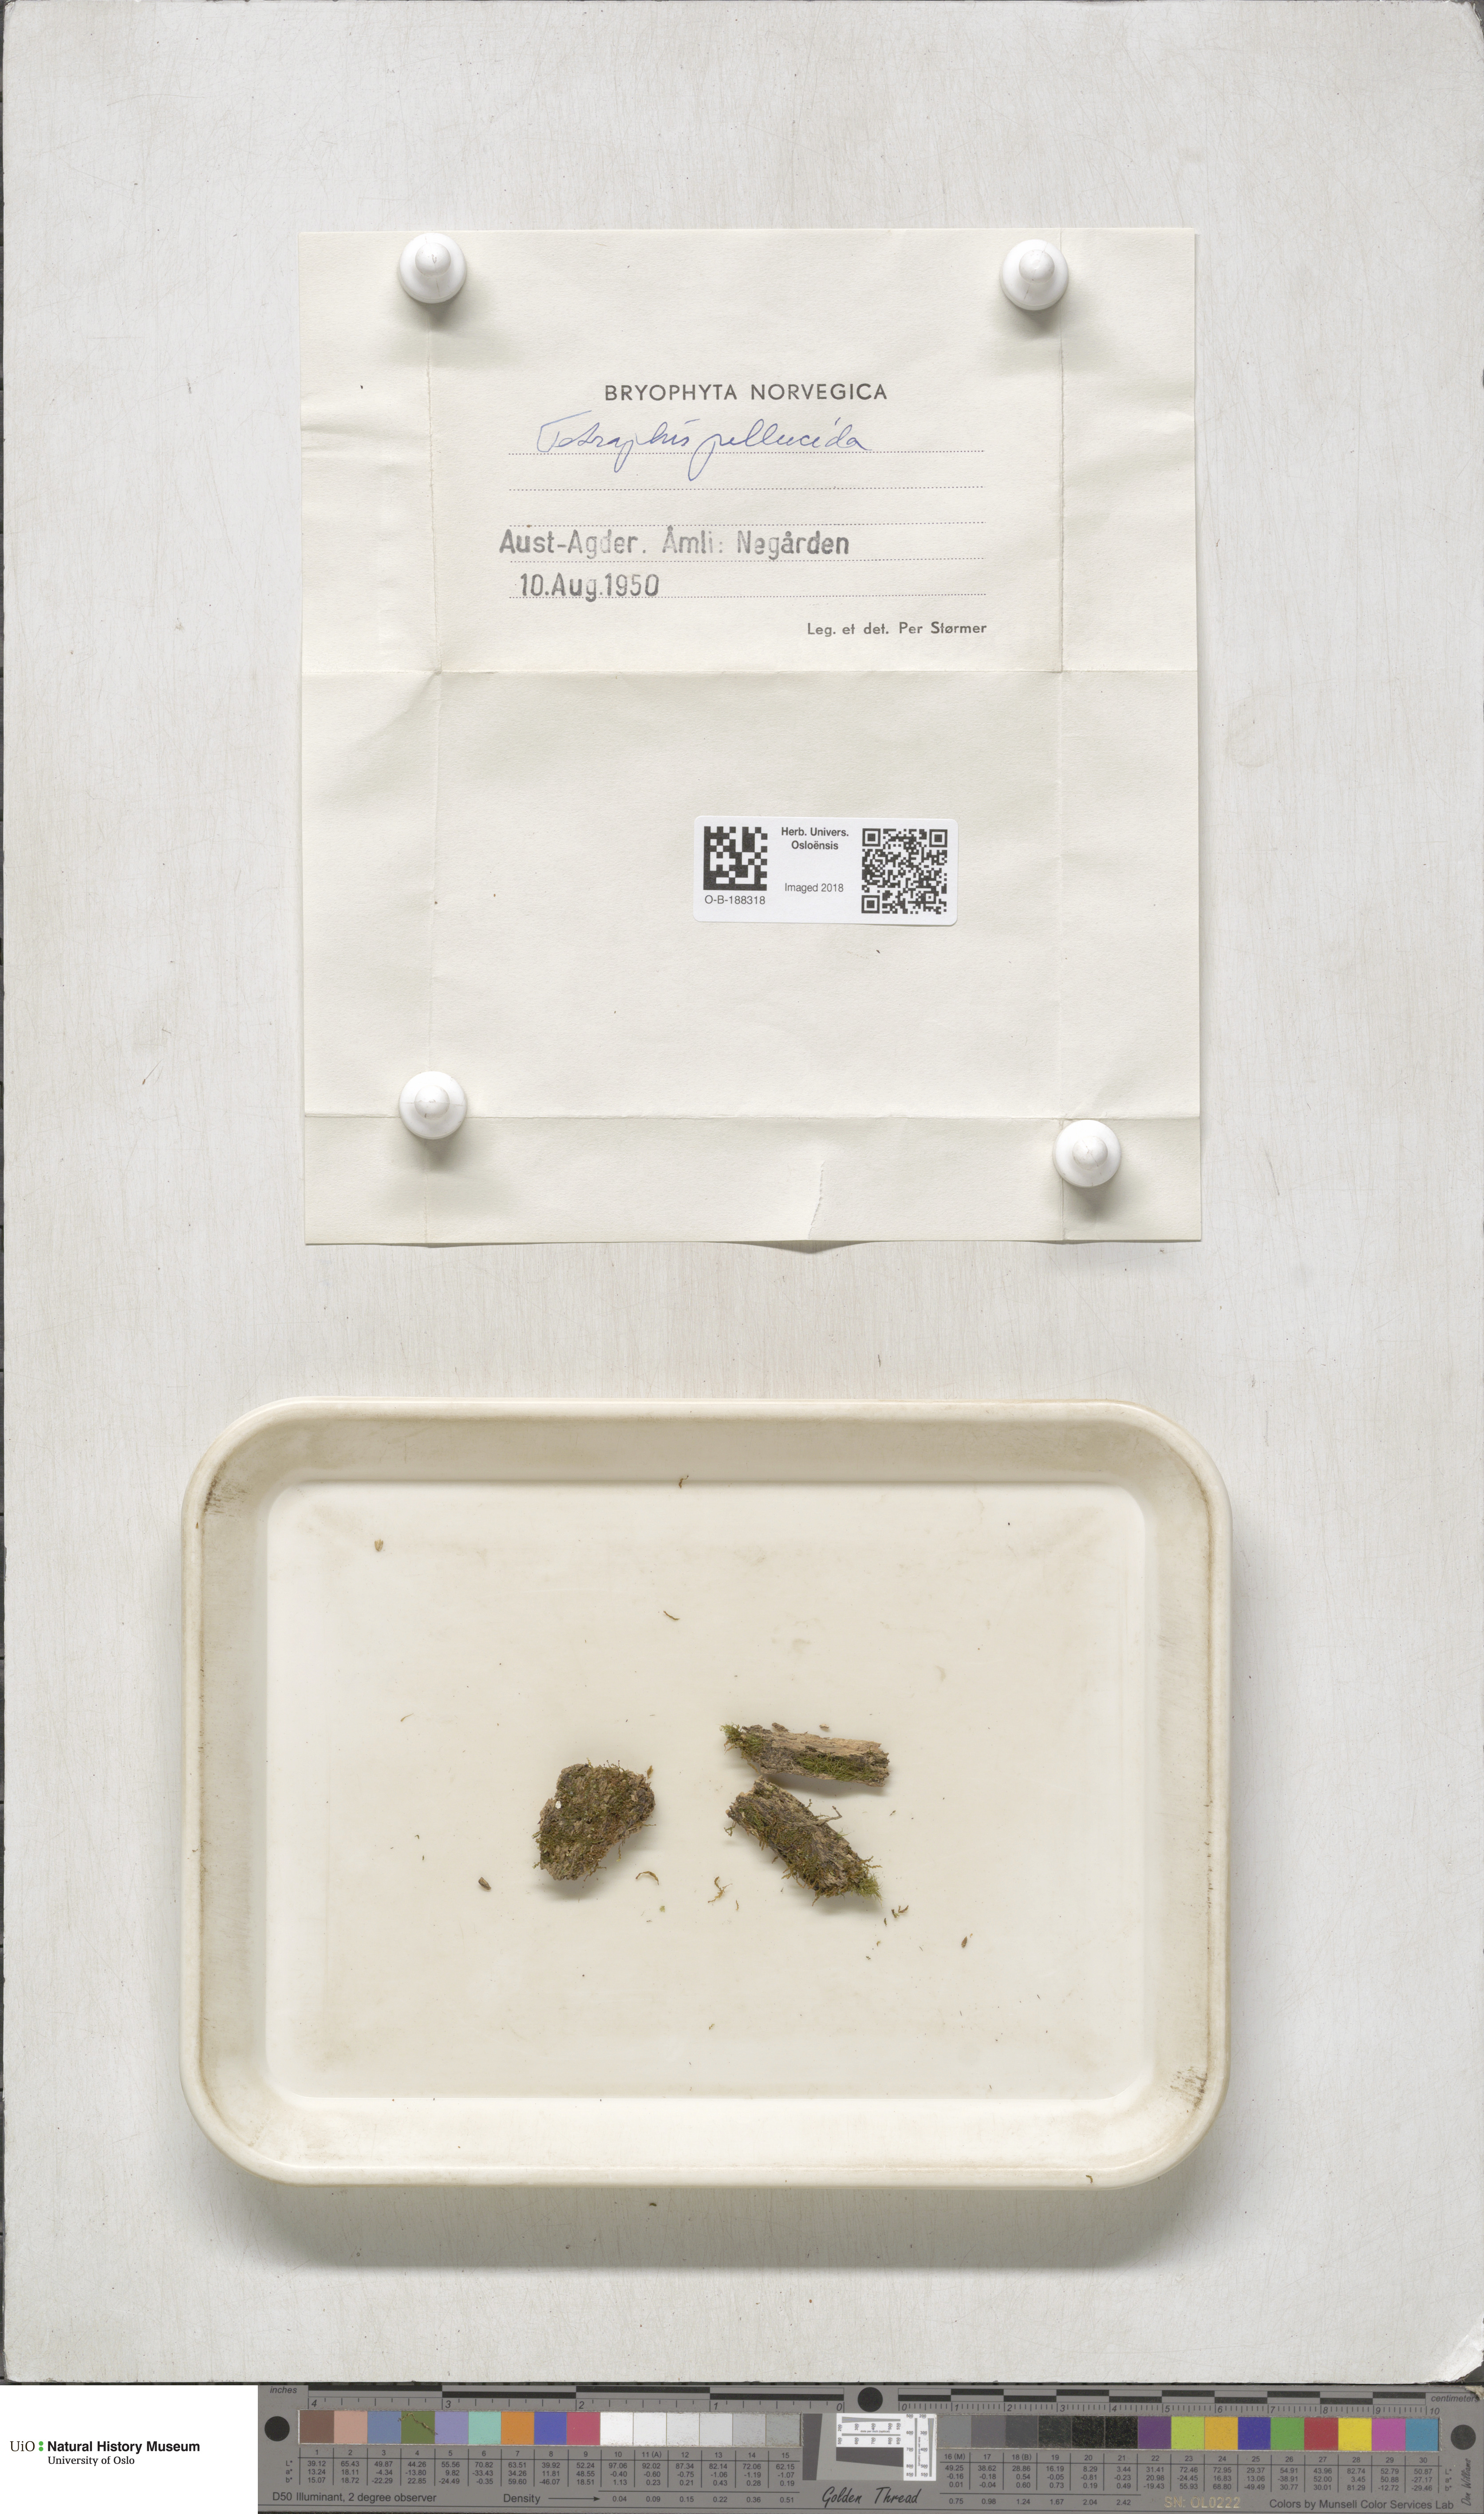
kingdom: Plantae
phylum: Bryophyta
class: Polytrichopsida
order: Tetraphidales
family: Tetraphidaceae
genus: Tetraphis
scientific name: Tetraphis pellucida
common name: Common four-toothed moss
